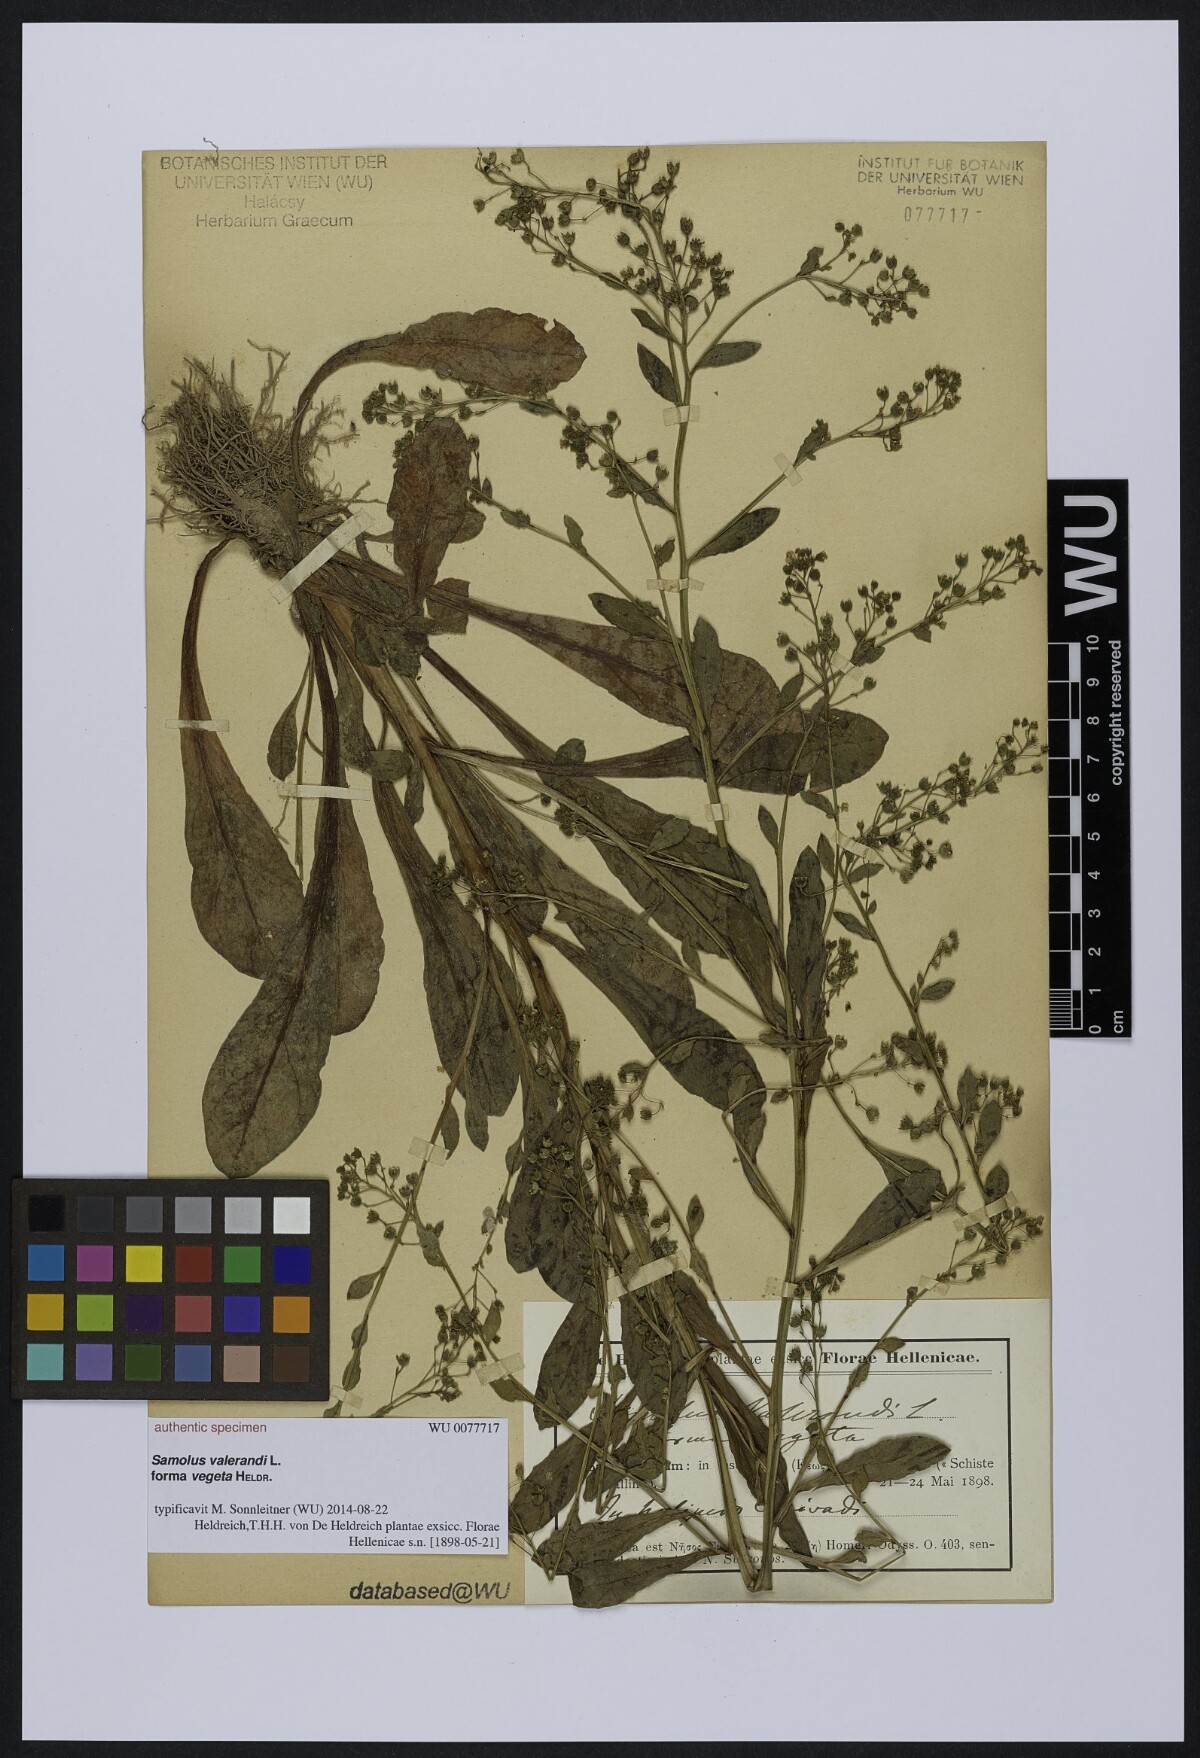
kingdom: Plantae
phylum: Tracheophyta
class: Magnoliopsida
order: Ericales
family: Primulaceae
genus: Samolus
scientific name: Samolus valerandi
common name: Brookweed
